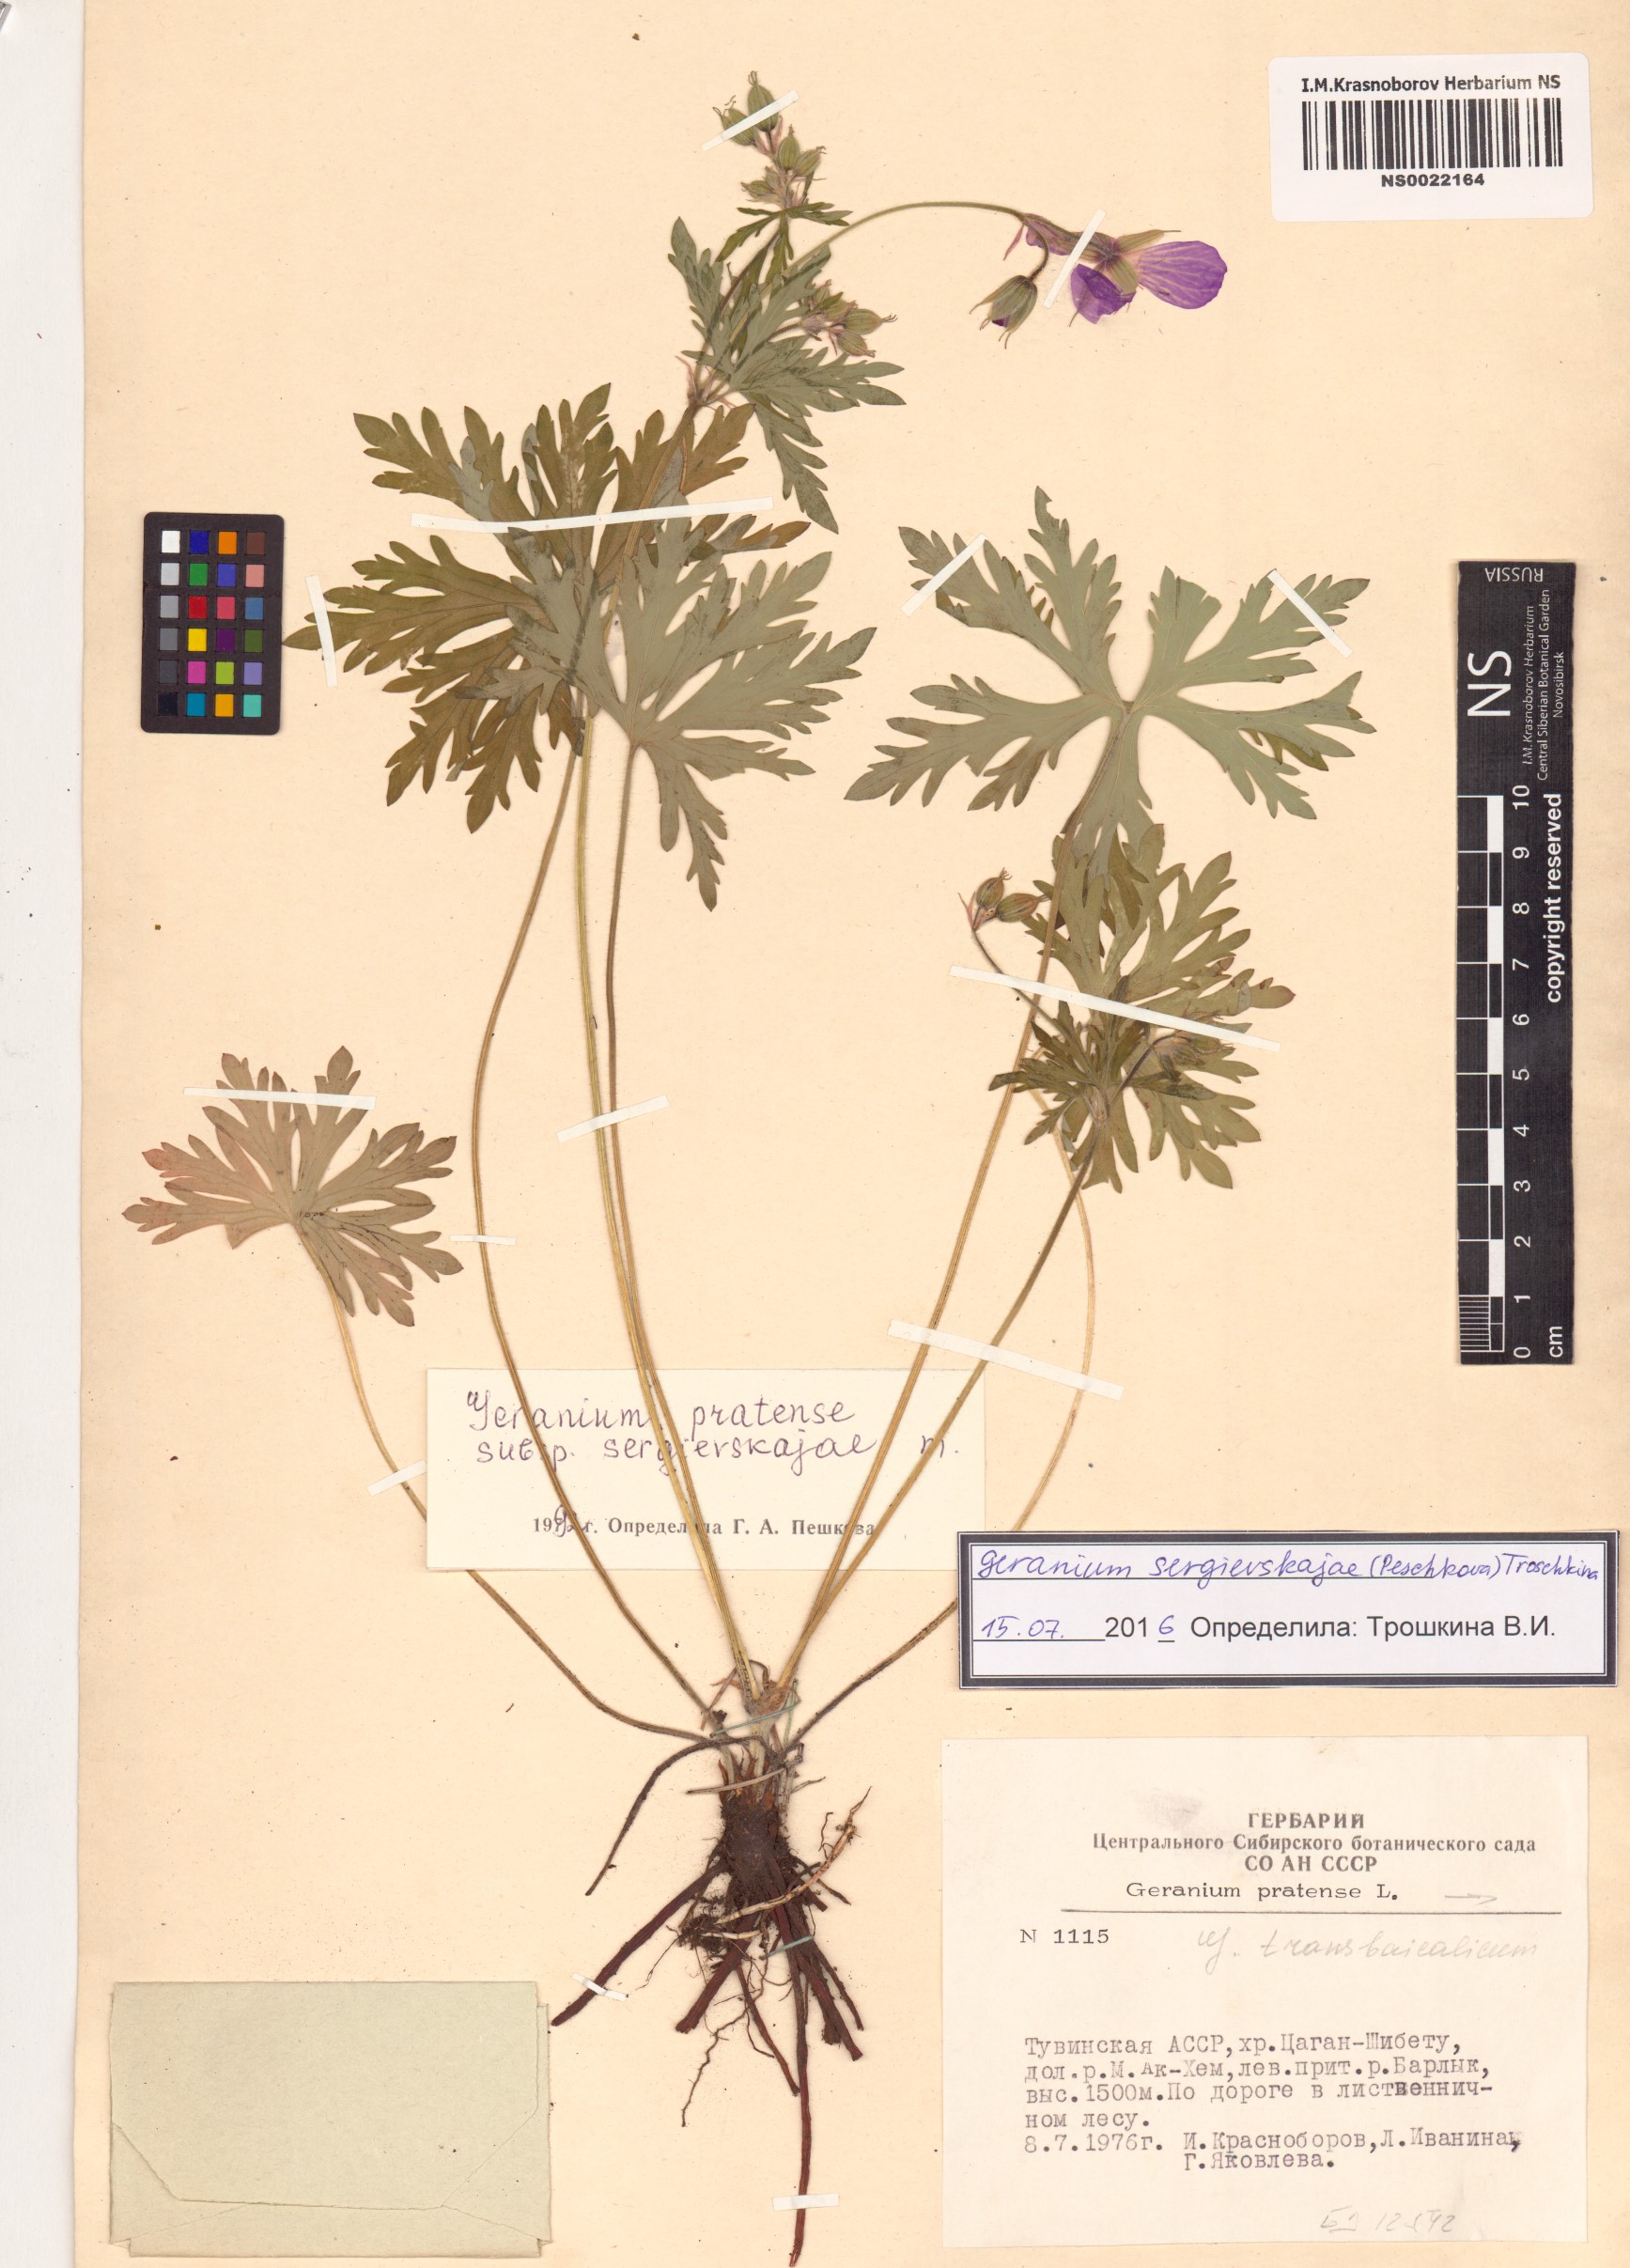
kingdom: Plantae
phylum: Tracheophyta
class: Magnoliopsida
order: Geraniales
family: Geraniaceae
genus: Geranium
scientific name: Geranium pratense
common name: Meadow crane's-bill
